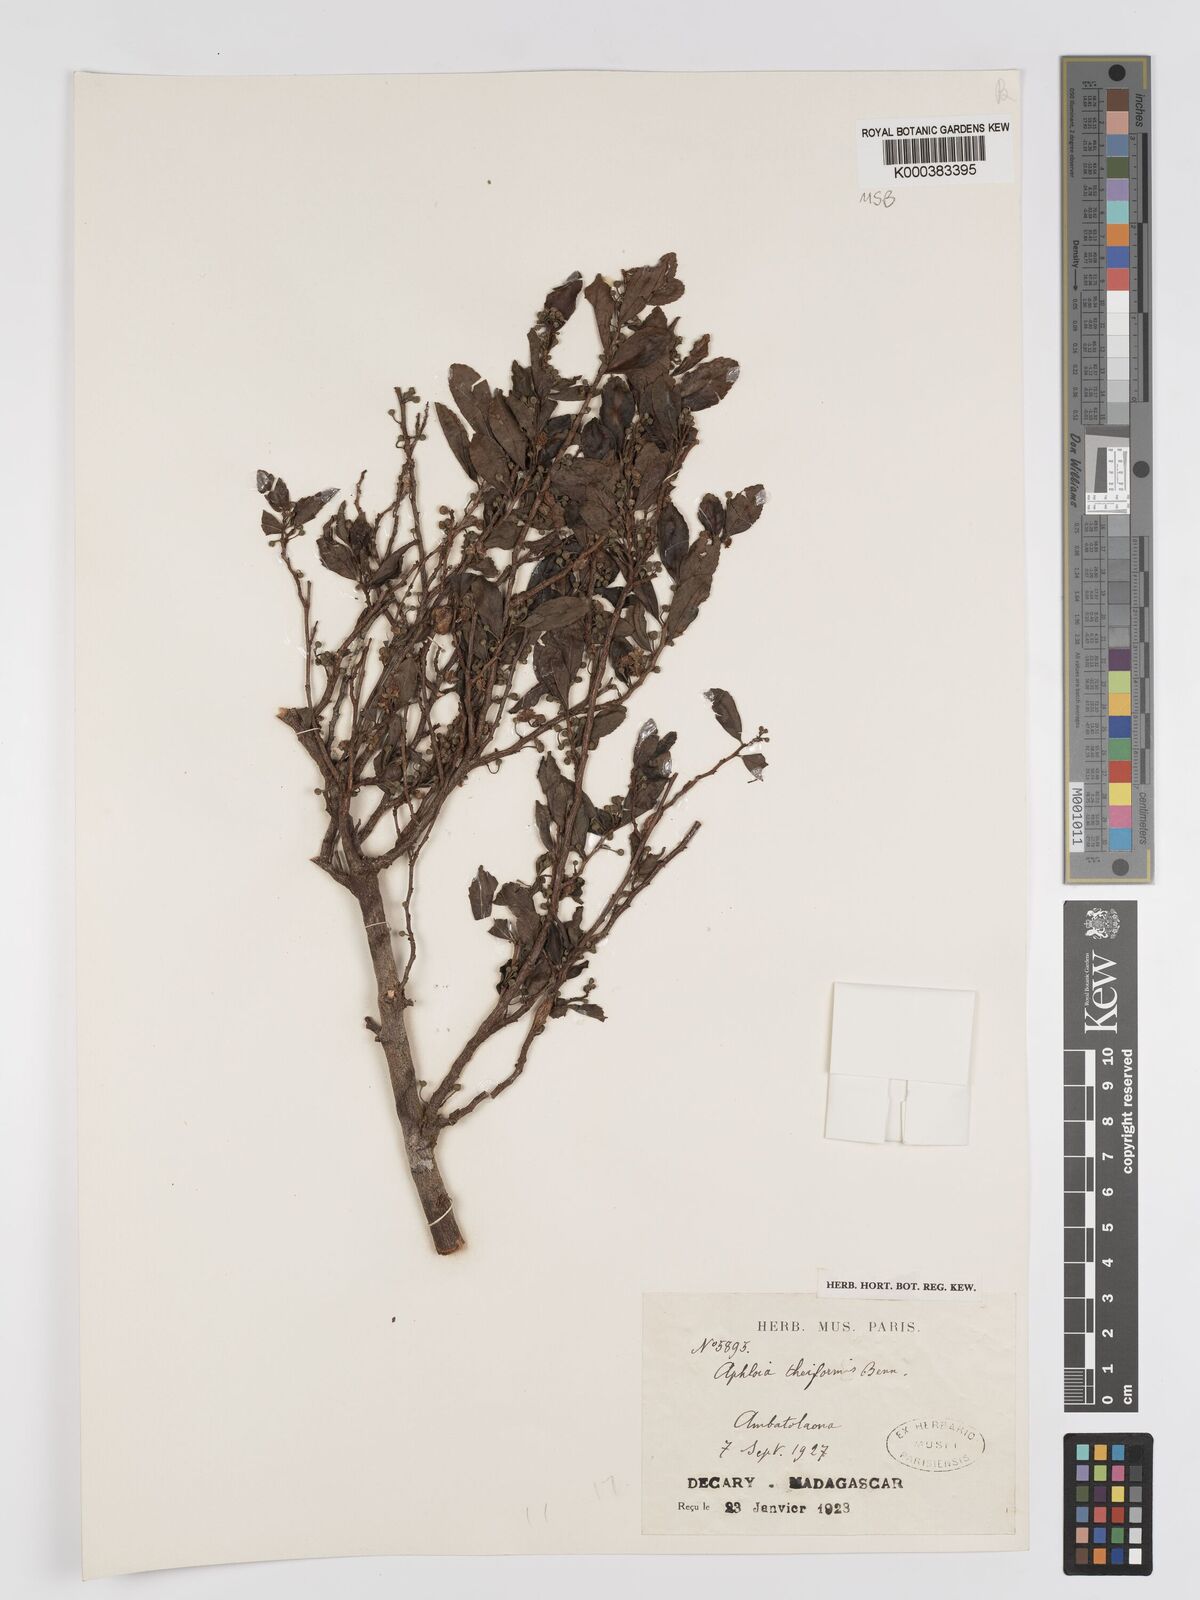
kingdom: Plantae
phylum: Tracheophyta
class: Magnoliopsida
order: Crossosomatales
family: Aphloiaceae
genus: Aphloia
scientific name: Aphloia theiformis
